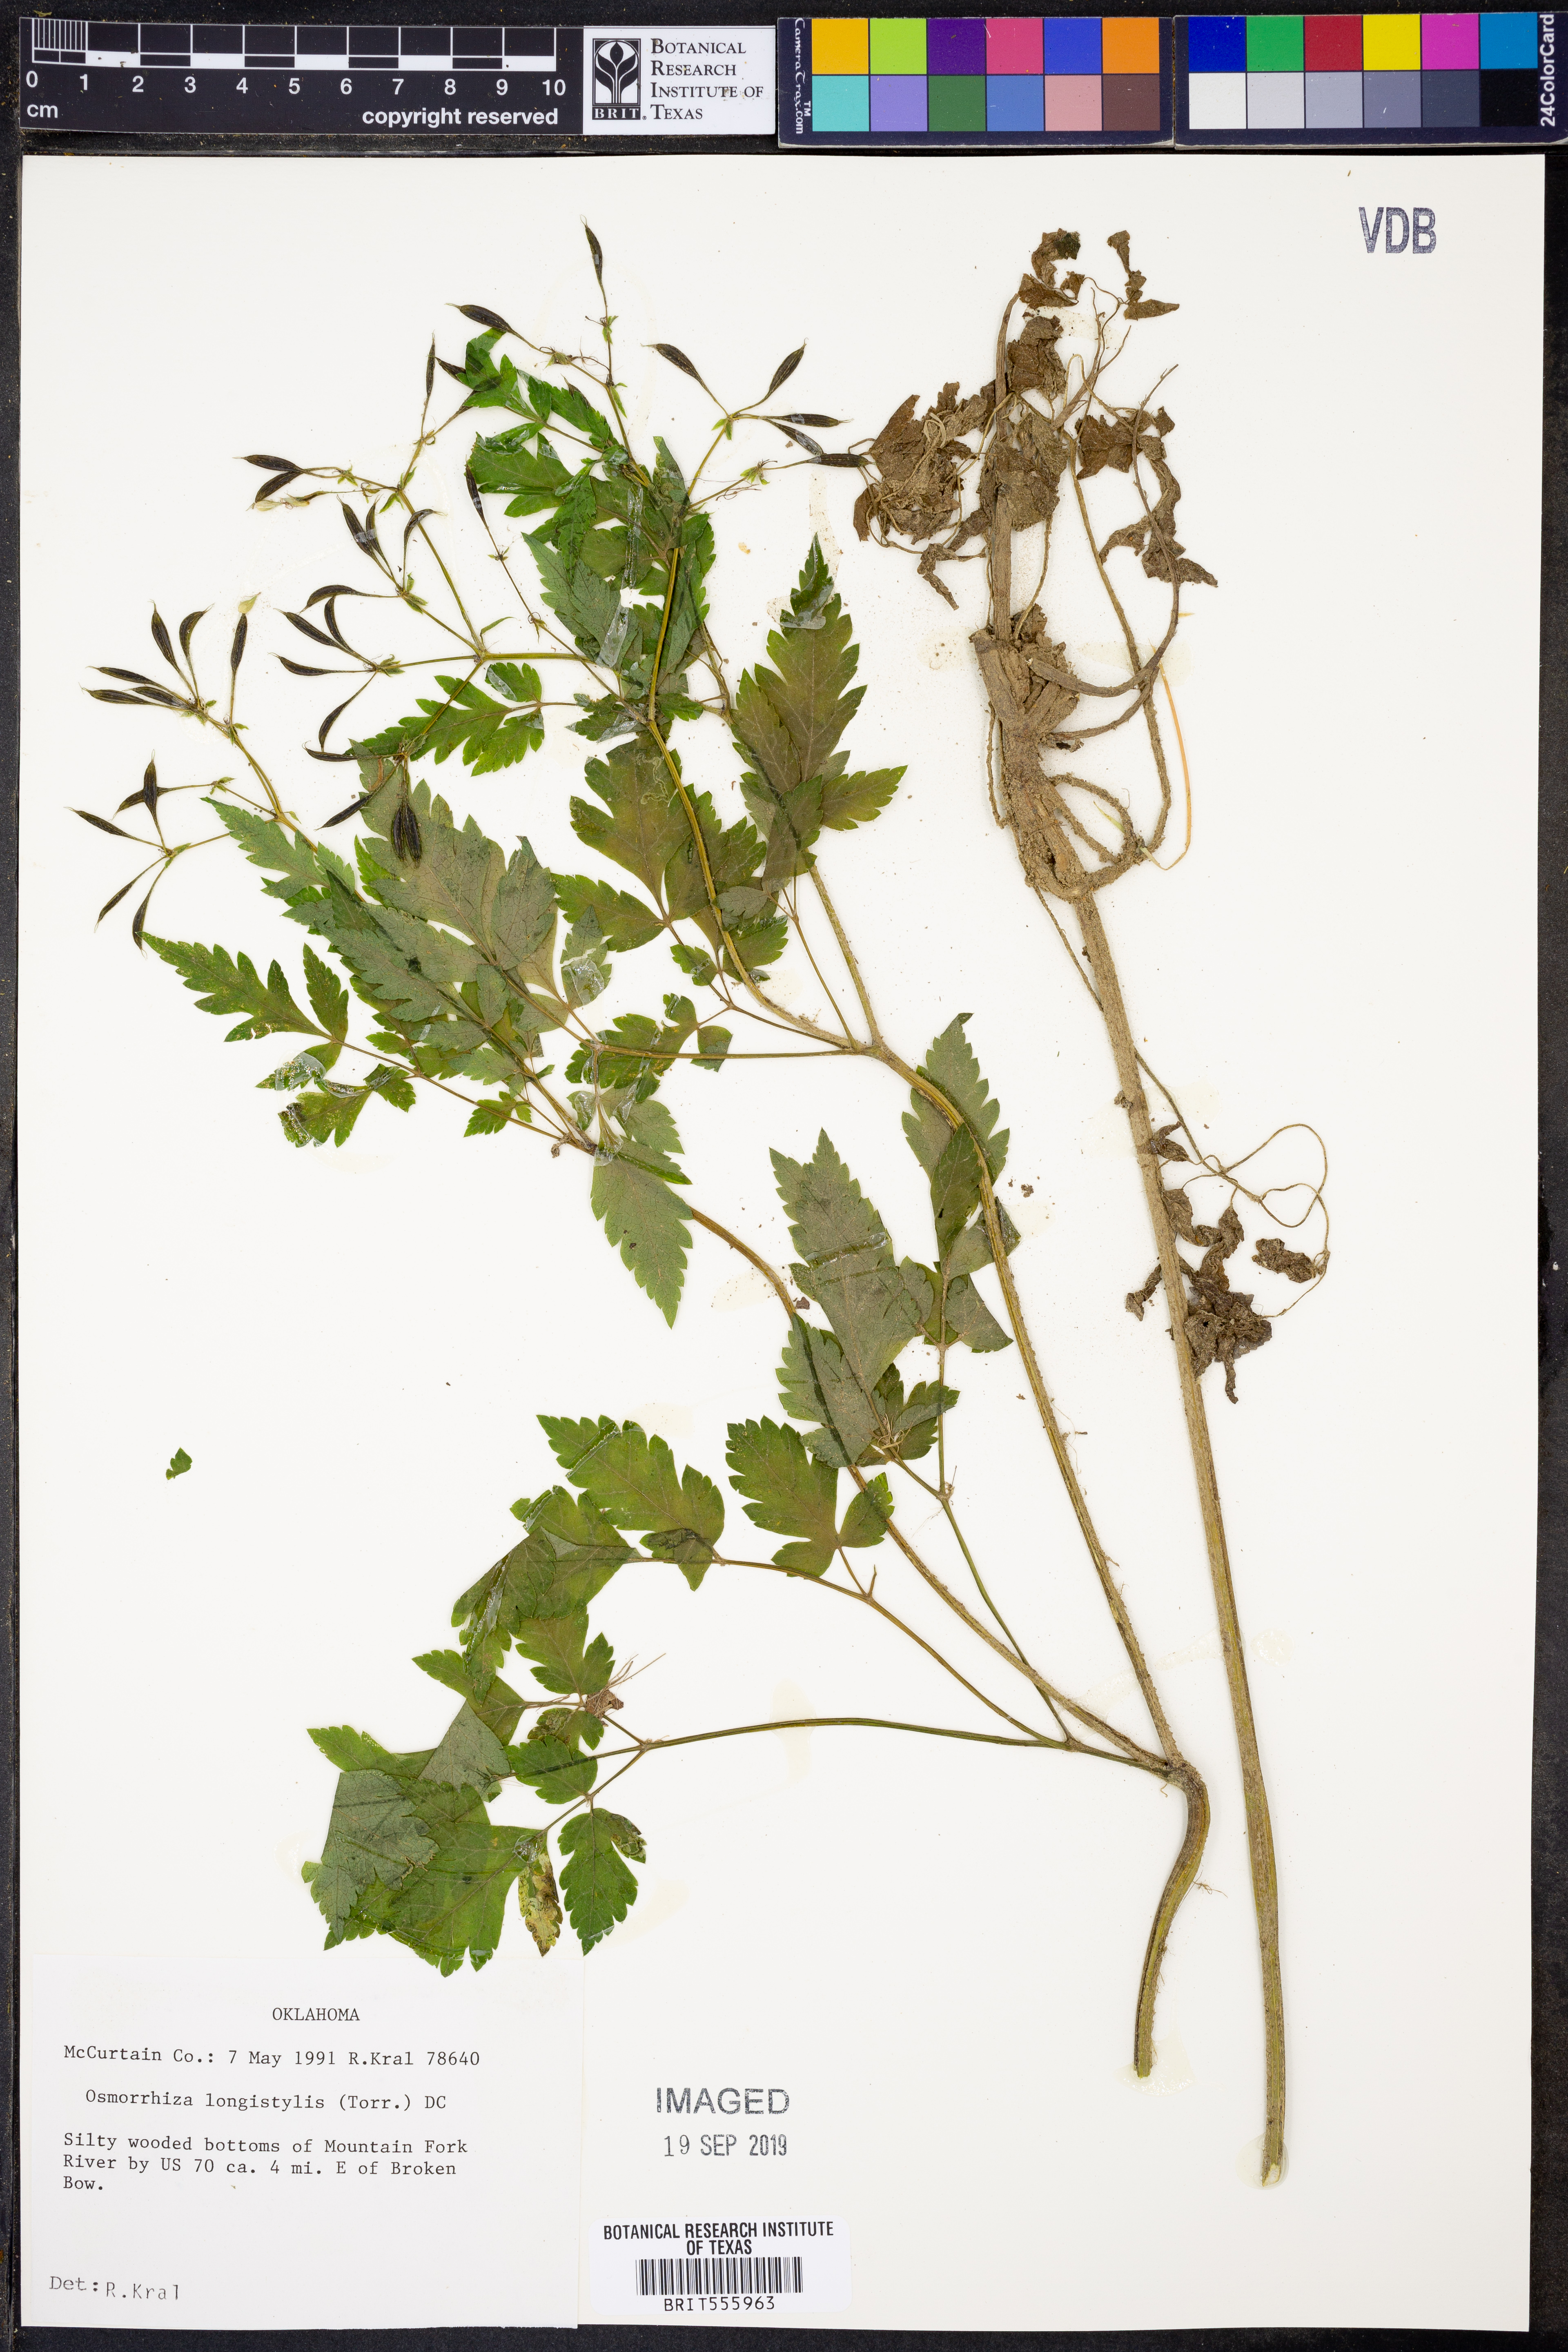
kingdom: Plantae
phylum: Tracheophyta
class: Magnoliopsida
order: Apiales
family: Apiaceae
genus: Osmorhiza
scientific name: Osmorhiza longistylis
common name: Smooth sweet cicely
